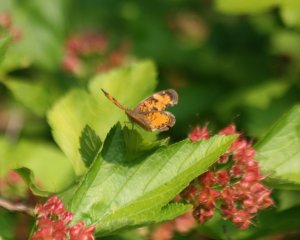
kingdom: Animalia
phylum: Arthropoda
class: Insecta
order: Lepidoptera
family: Nymphalidae
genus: Phyciodes
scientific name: Phyciodes tharos
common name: Northern Crescent
